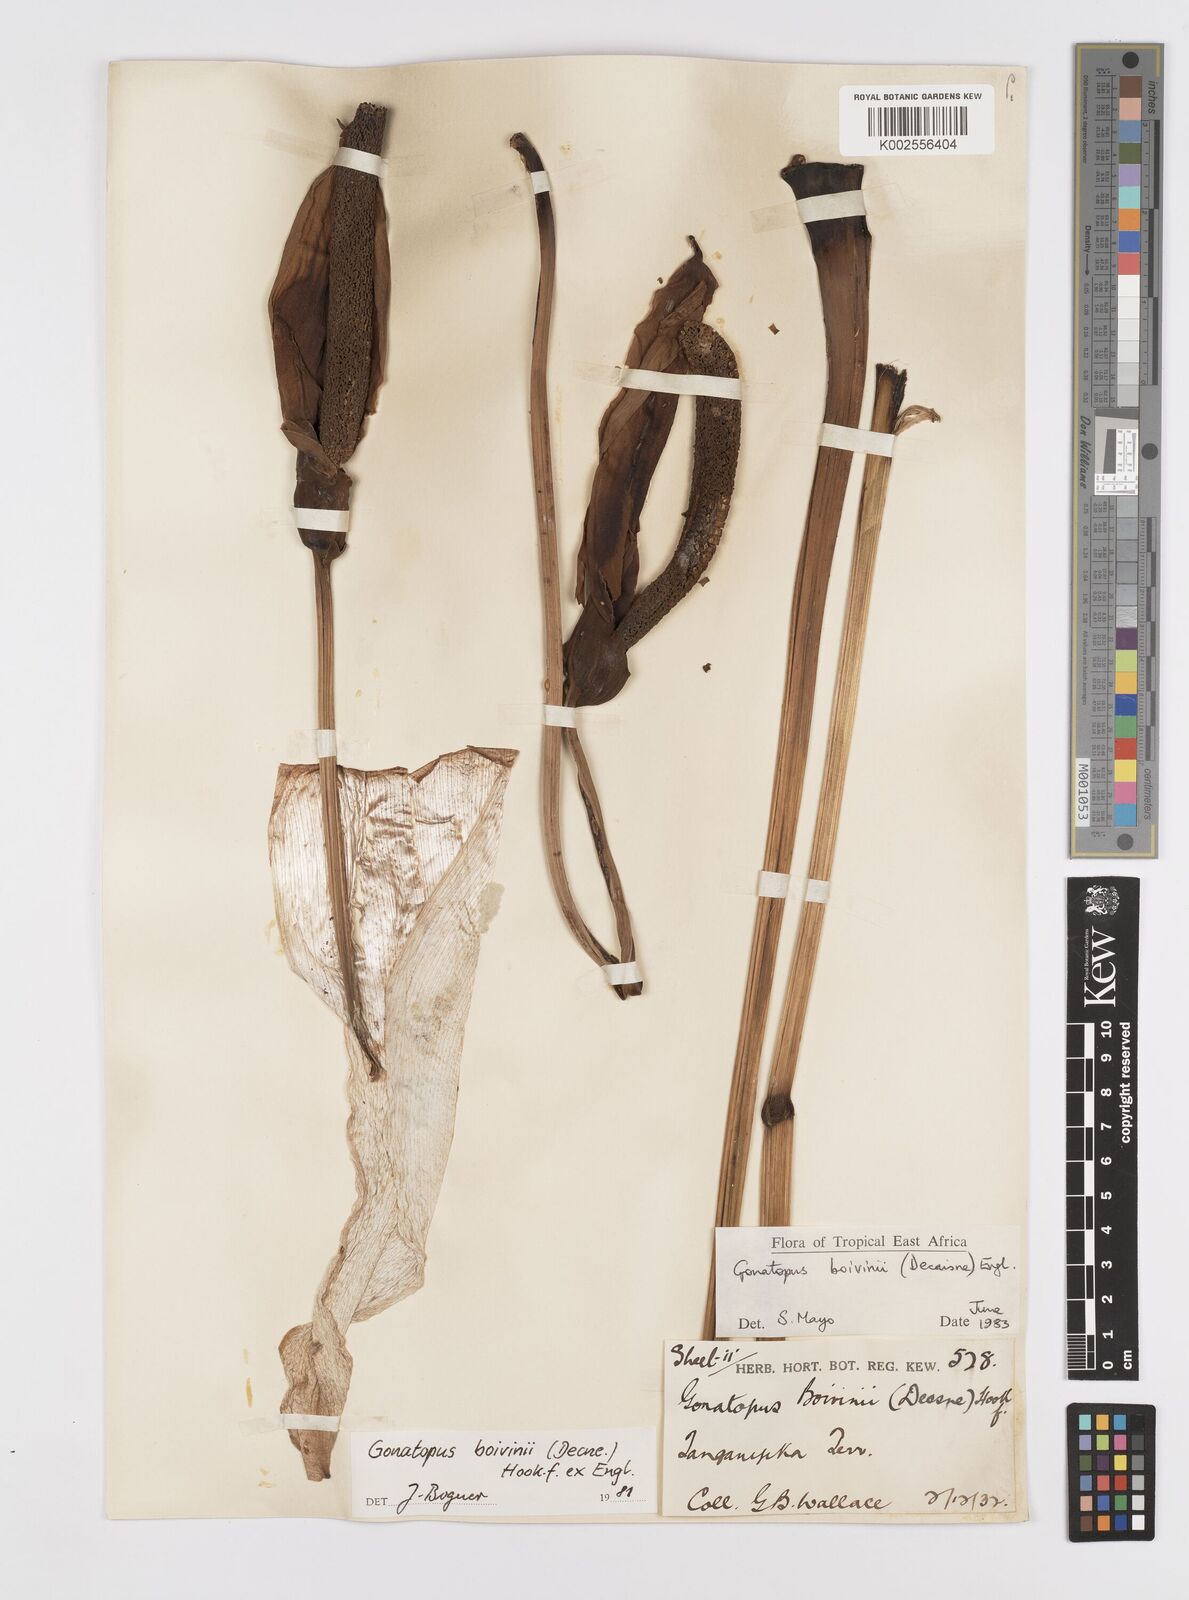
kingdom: Plantae
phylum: Tracheophyta
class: Liliopsida
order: Alismatales
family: Araceae
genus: Gonatopus
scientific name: Gonatopus boivinii
